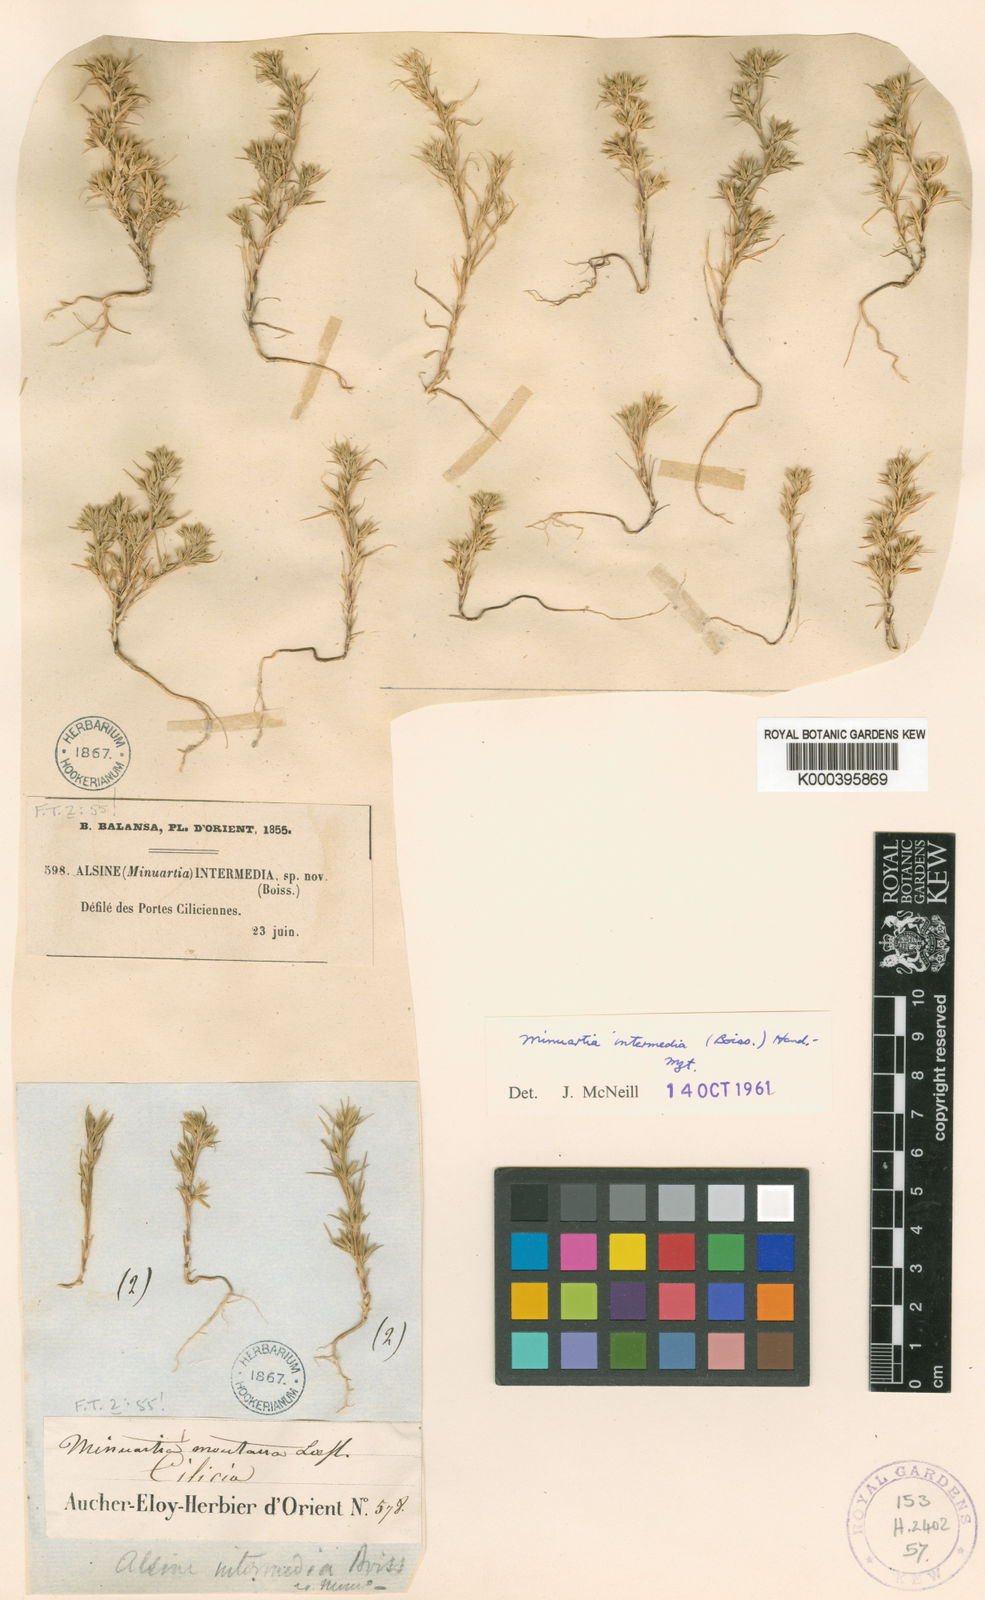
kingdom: Plantae
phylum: Tracheophyta
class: Magnoliopsida
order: Caryophyllales
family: Caryophyllaceae
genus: Minuartia
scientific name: Minuartia intermedia
